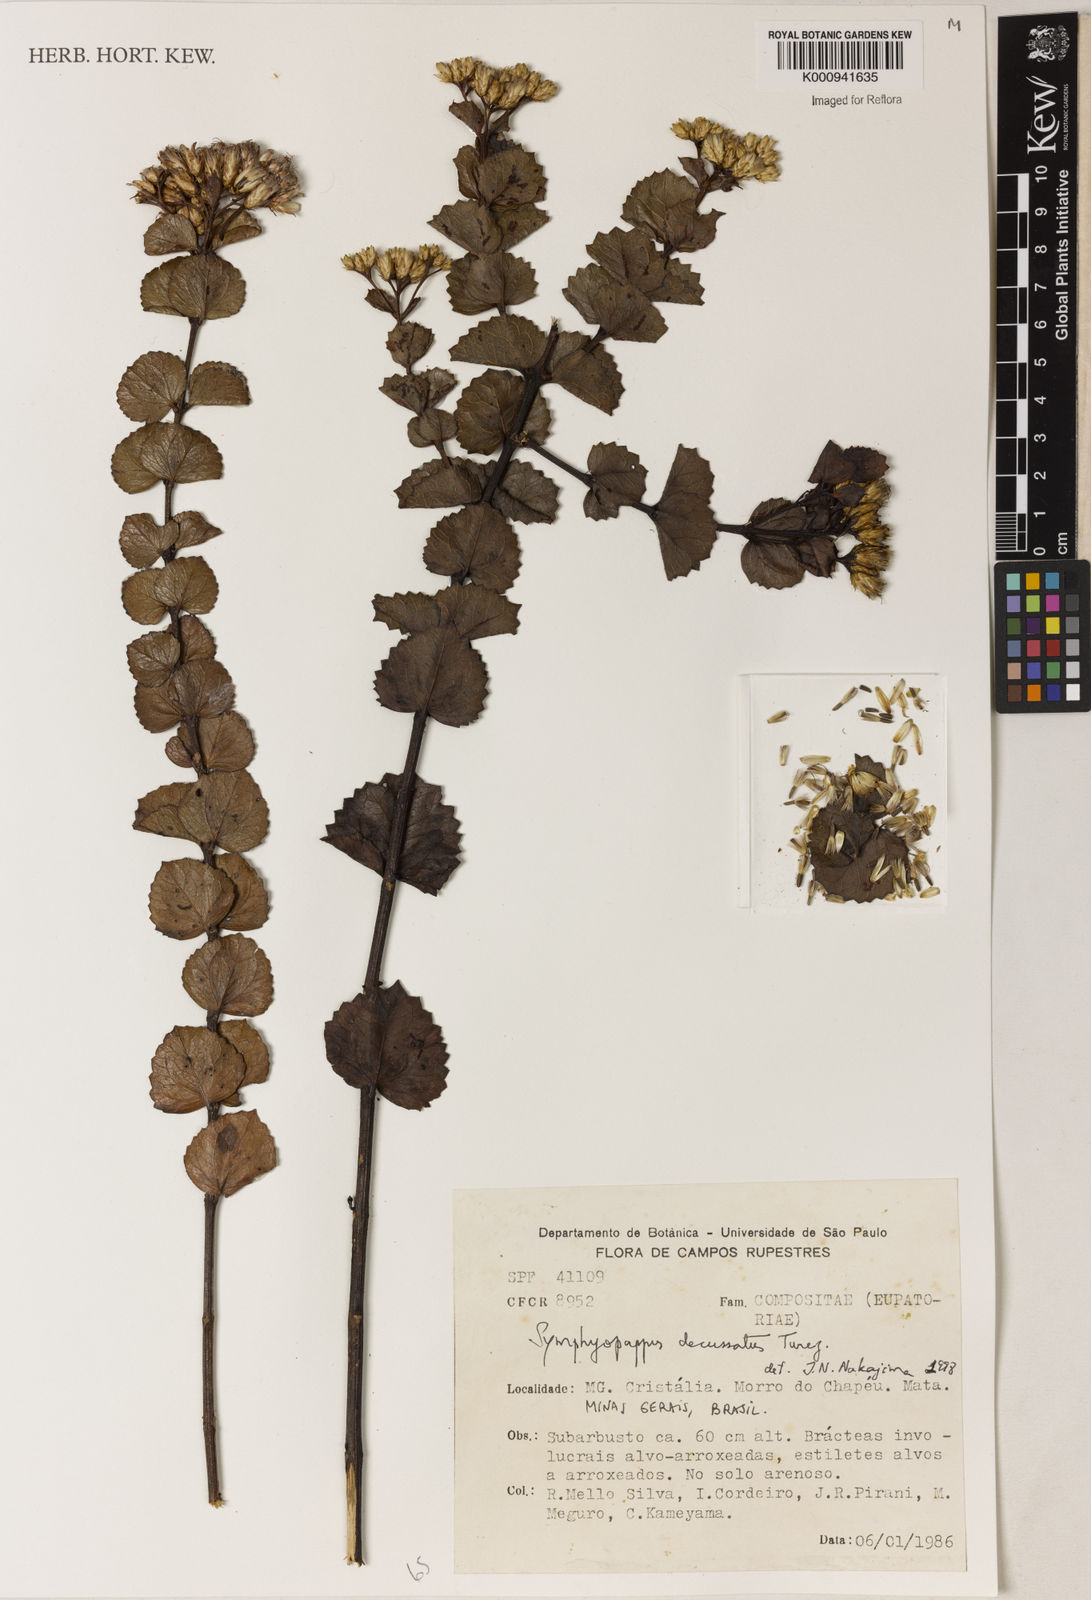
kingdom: Plantae
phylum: Tracheophyta
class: Magnoliopsida
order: Asterales
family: Asteraceae
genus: Symphyopappus
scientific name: Symphyopappus decussatus
